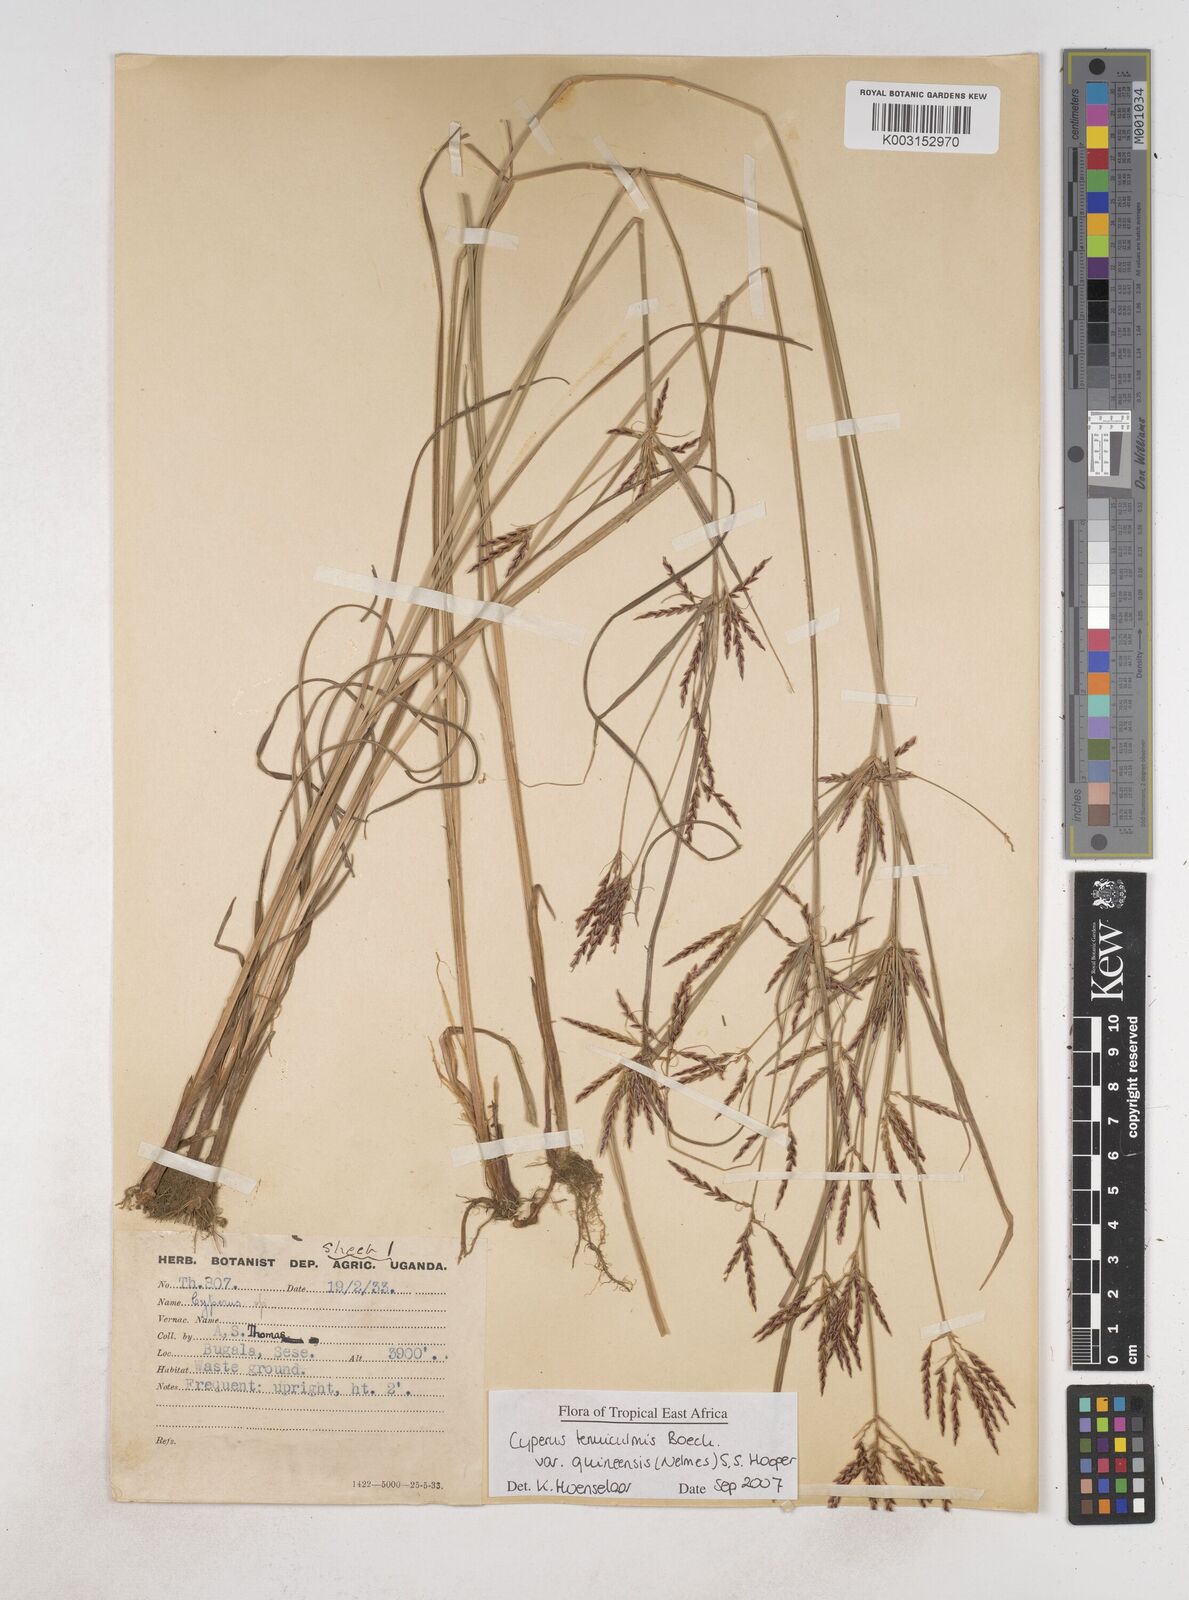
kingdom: Plantae
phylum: Tracheophyta
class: Liliopsida
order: Poales
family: Cyperaceae
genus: Cyperus
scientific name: Cyperus tenuiculmis
